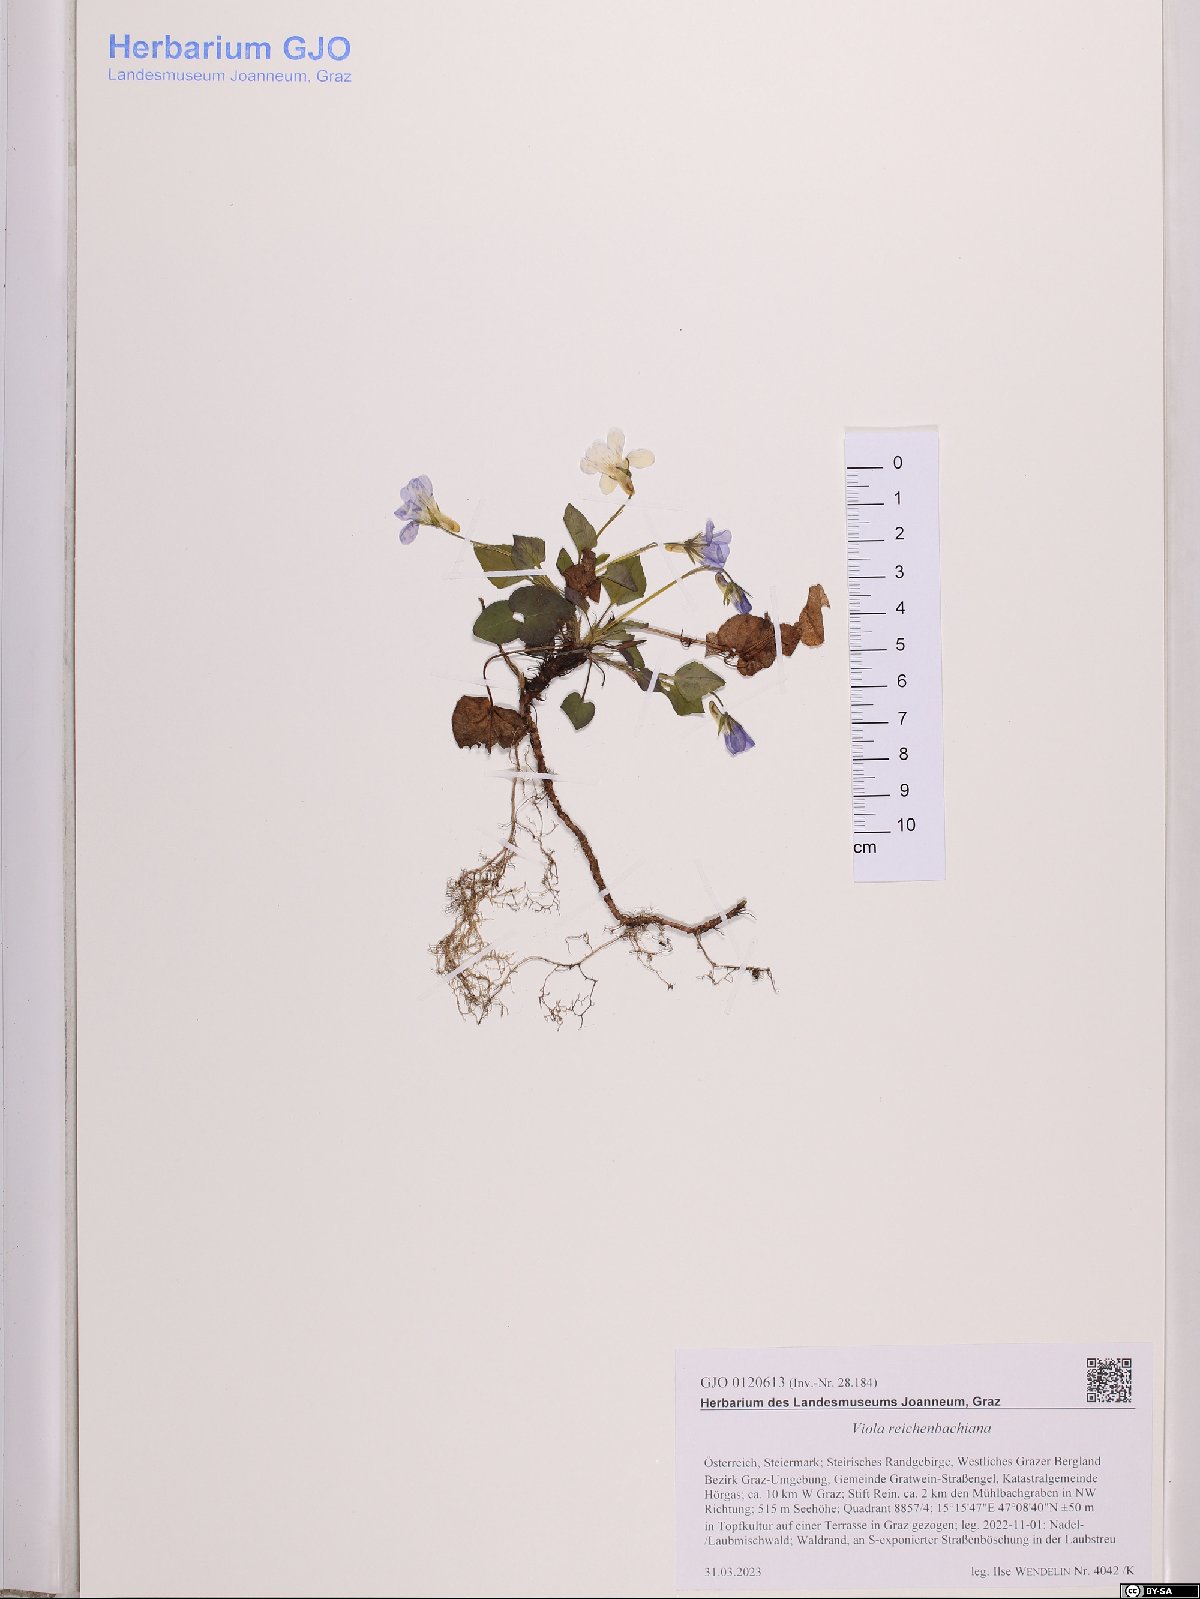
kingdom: Plantae
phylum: Tracheophyta
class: Magnoliopsida
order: Malpighiales
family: Violaceae
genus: Viola
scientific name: Viola reichenbachiana
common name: Early dog-violet
